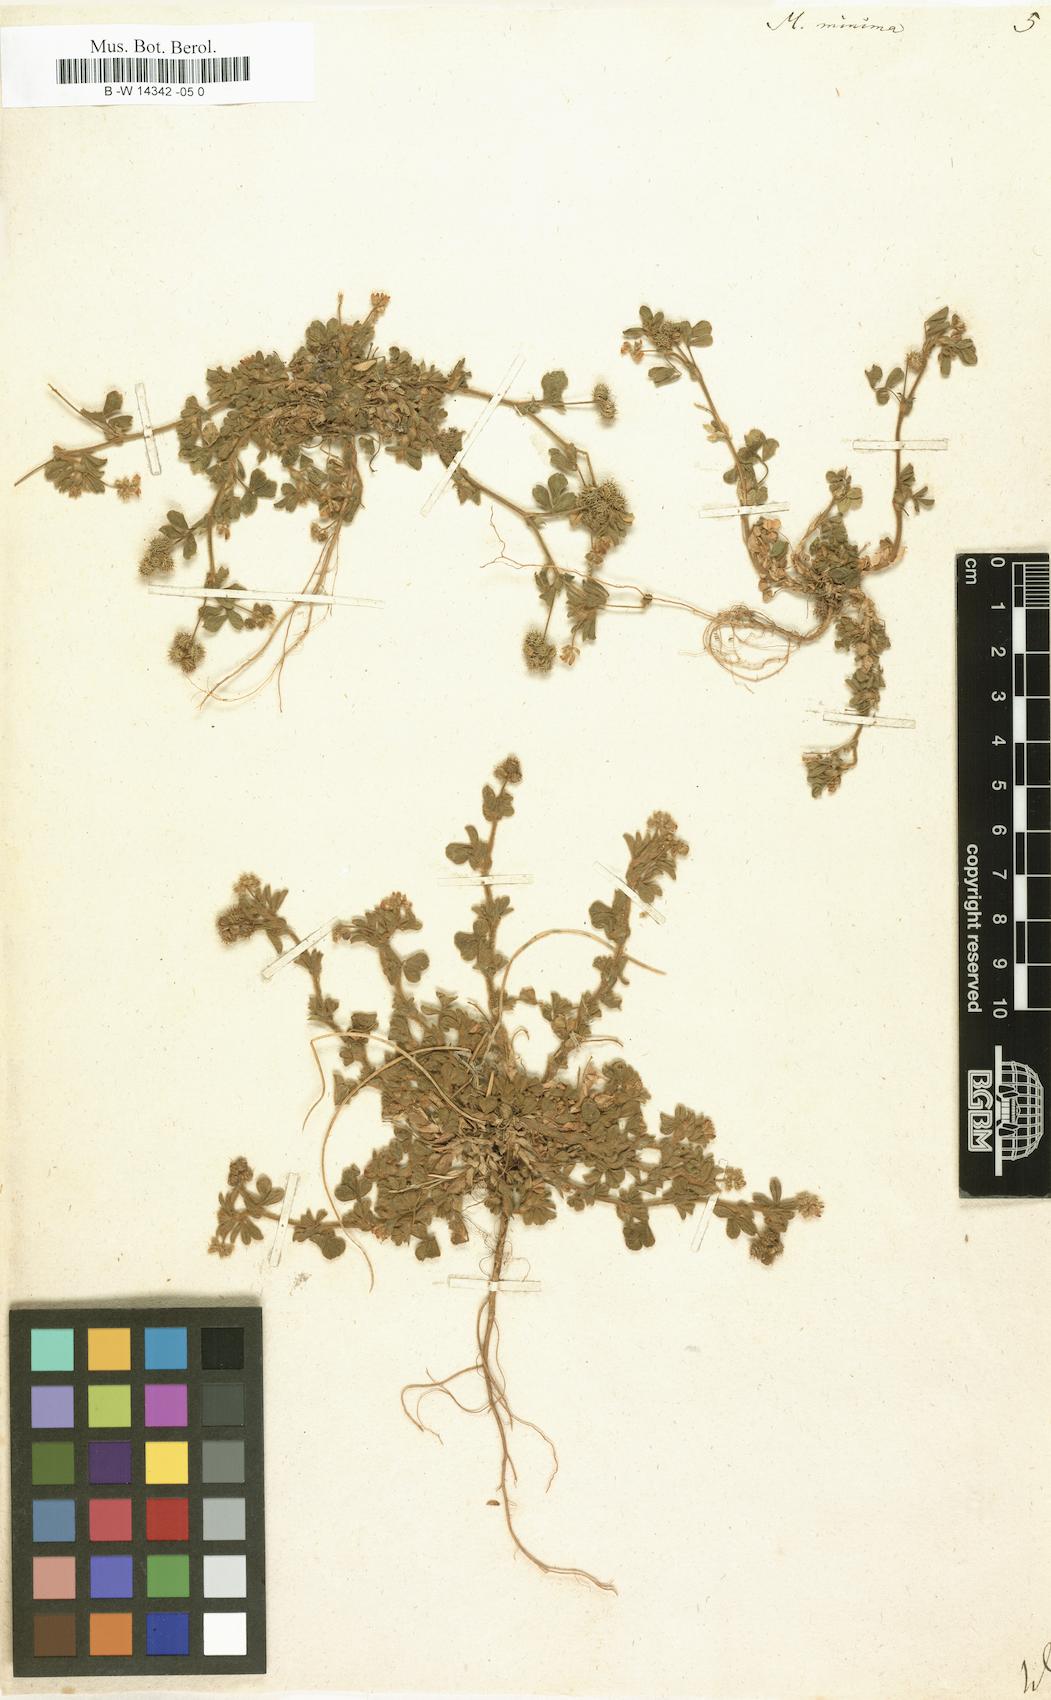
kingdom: Plantae
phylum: Tracheophyta
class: Magnoliopsida
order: Fabales
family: Fabaceae
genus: Medicago
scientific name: Medicago minima
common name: Little bur-clover
